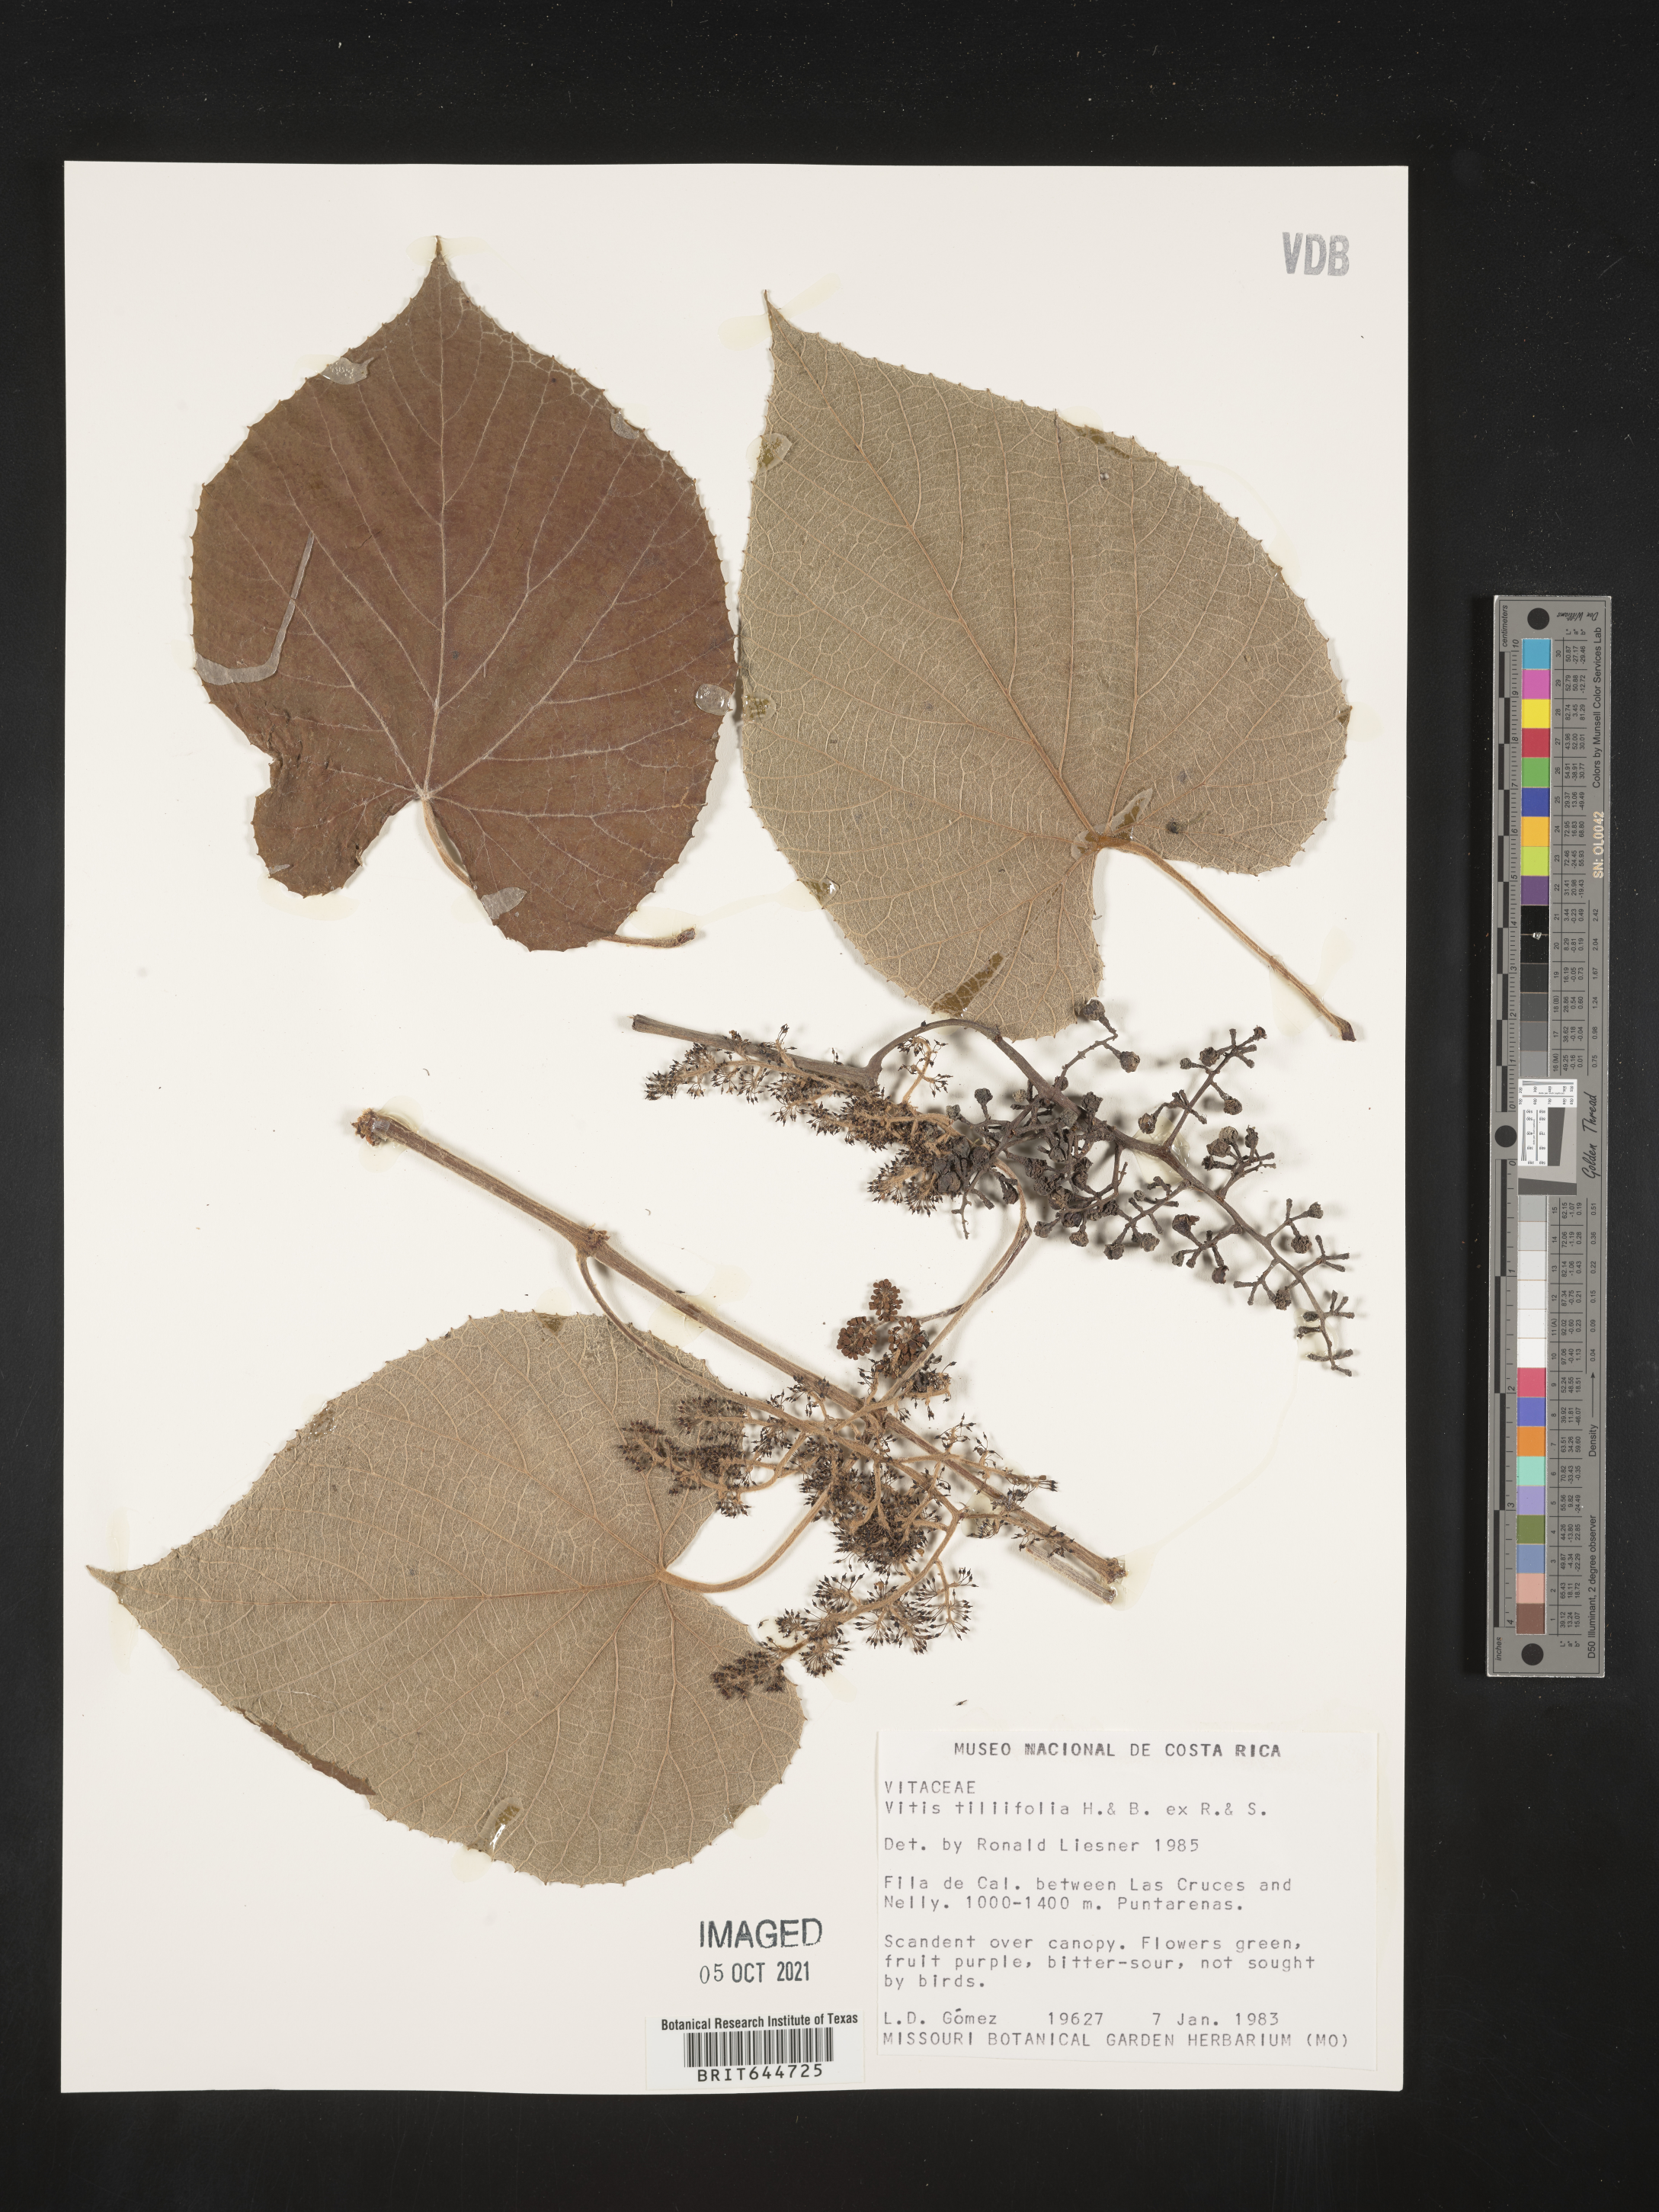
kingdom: Plantae
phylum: Tracheophyta
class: Magnoliopsida
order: Vitales
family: Vitaceae
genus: Vitis
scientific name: Vitis
